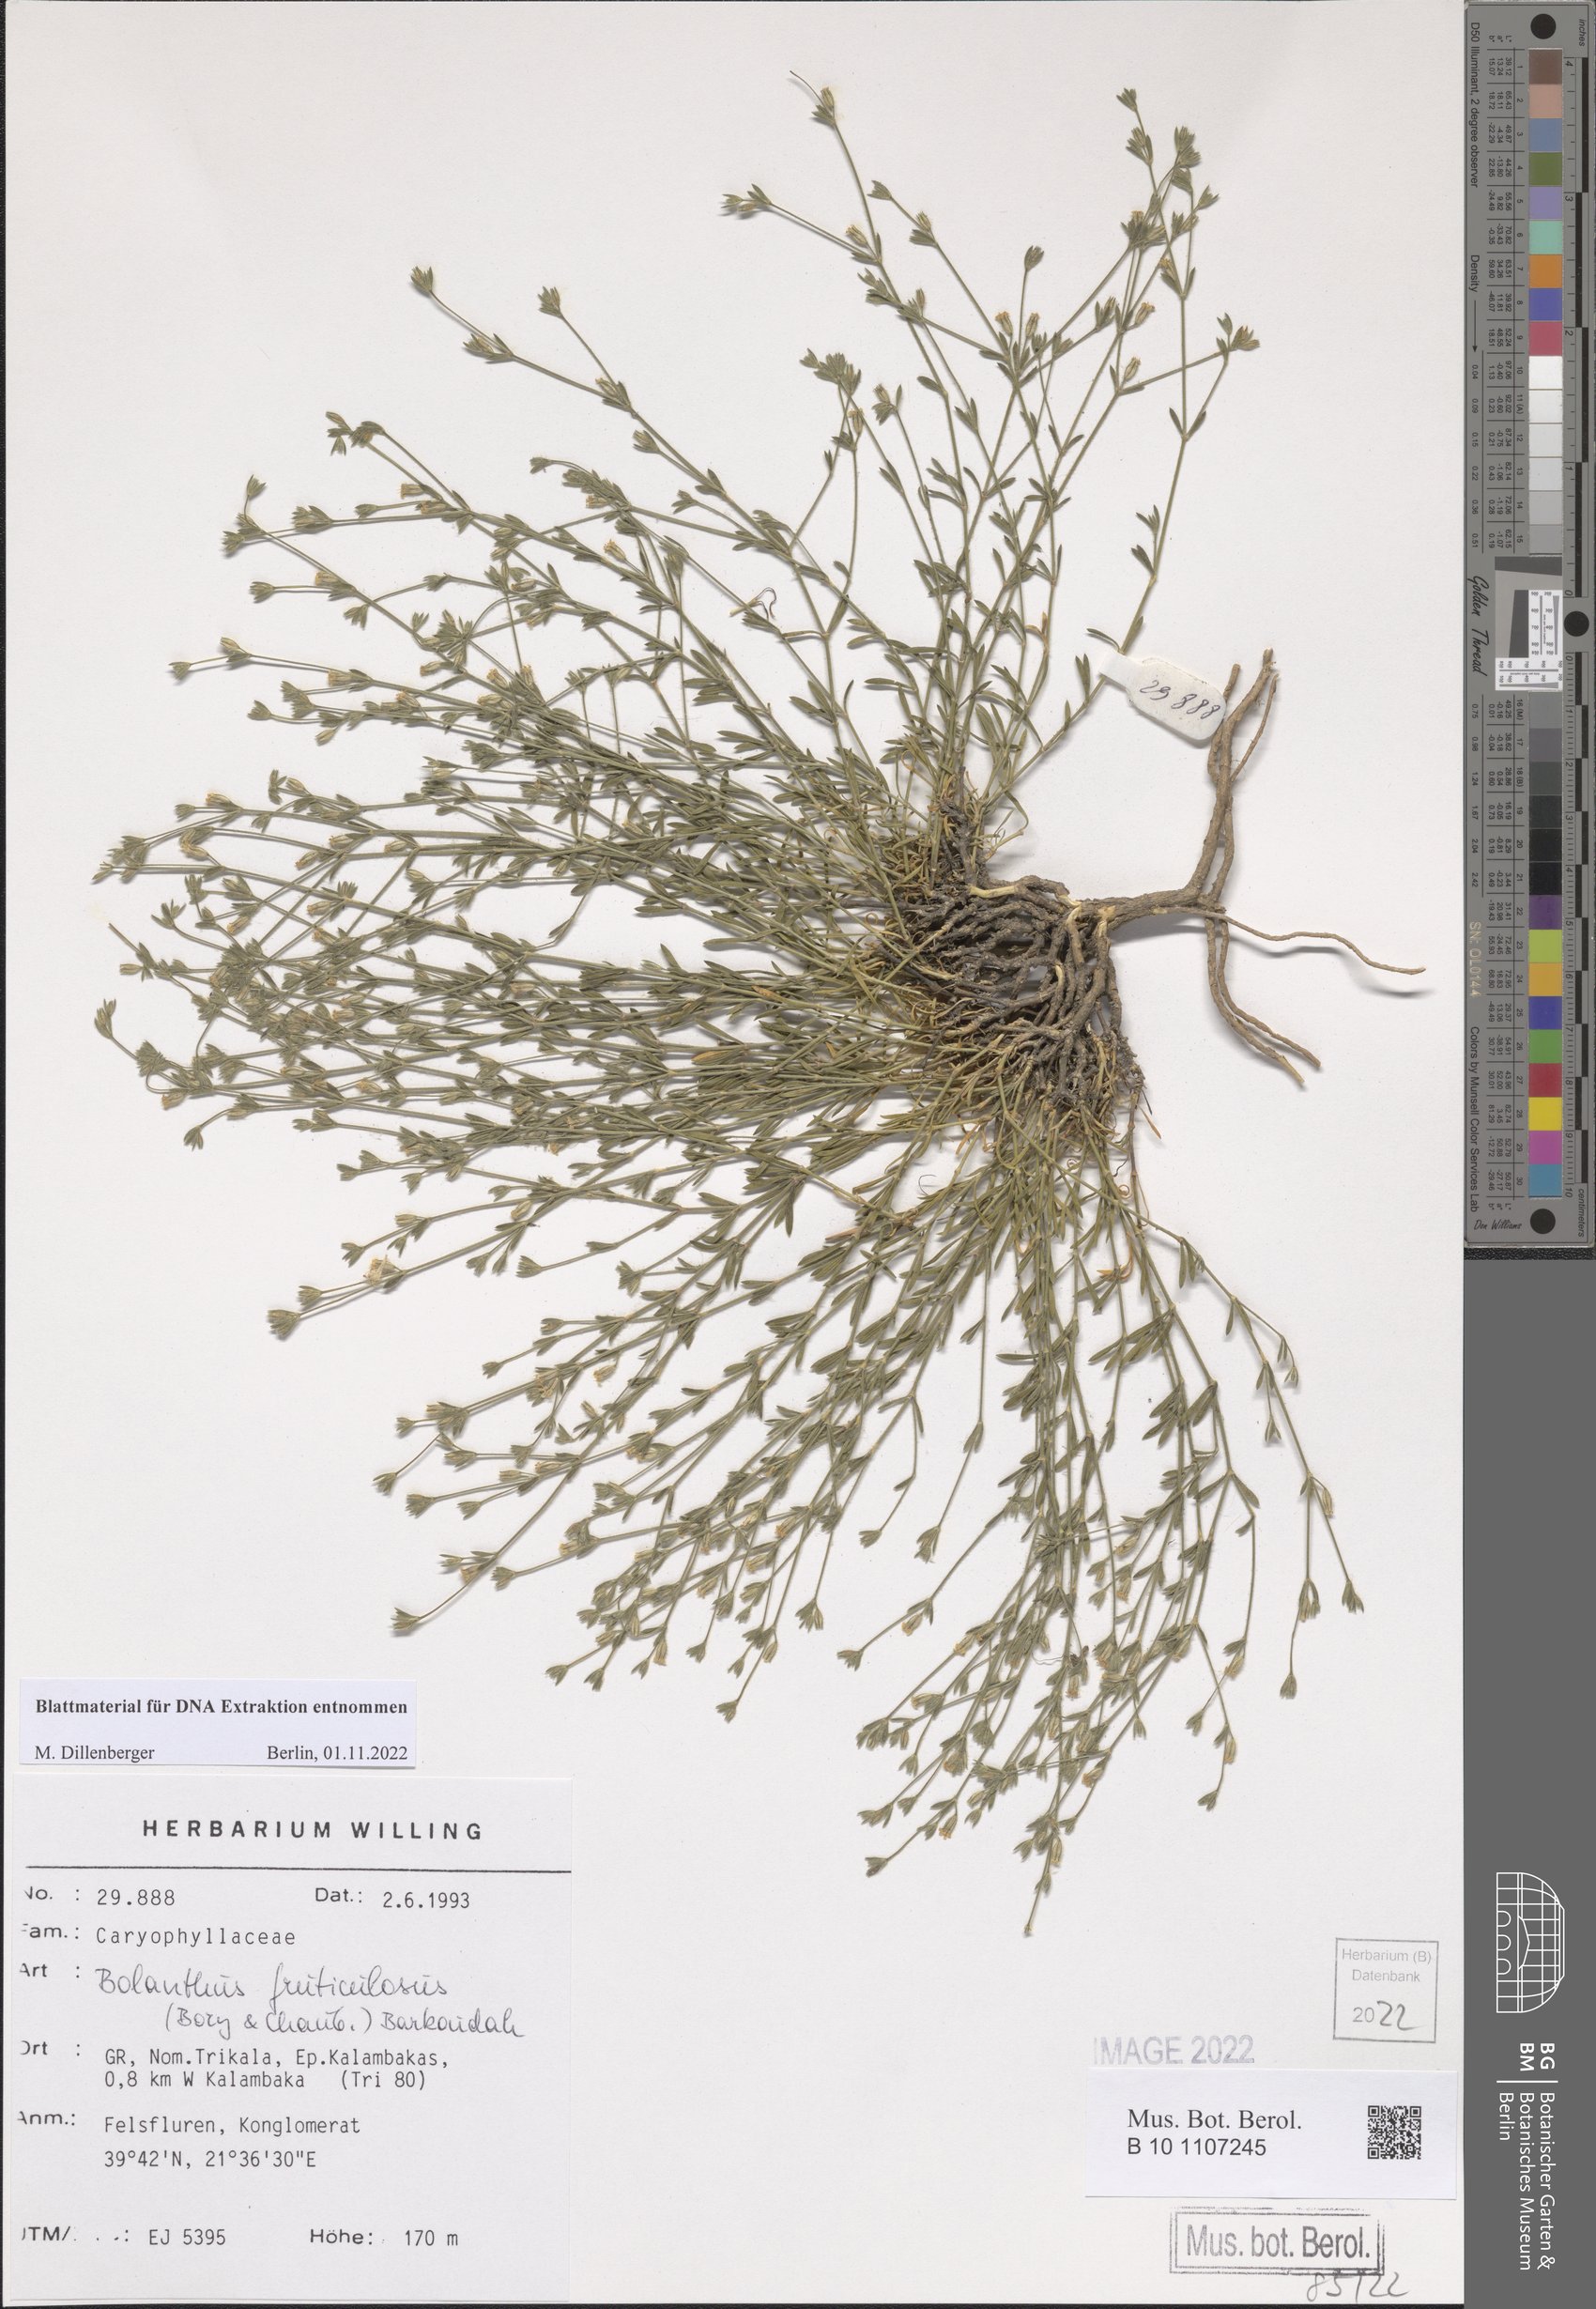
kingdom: Plantae
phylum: Tracheophyta
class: Magnoliopsida
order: Caryophyllales
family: Caryophyllaceae
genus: Graecobolanthus
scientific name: Graecobolanthus fruticulosus
